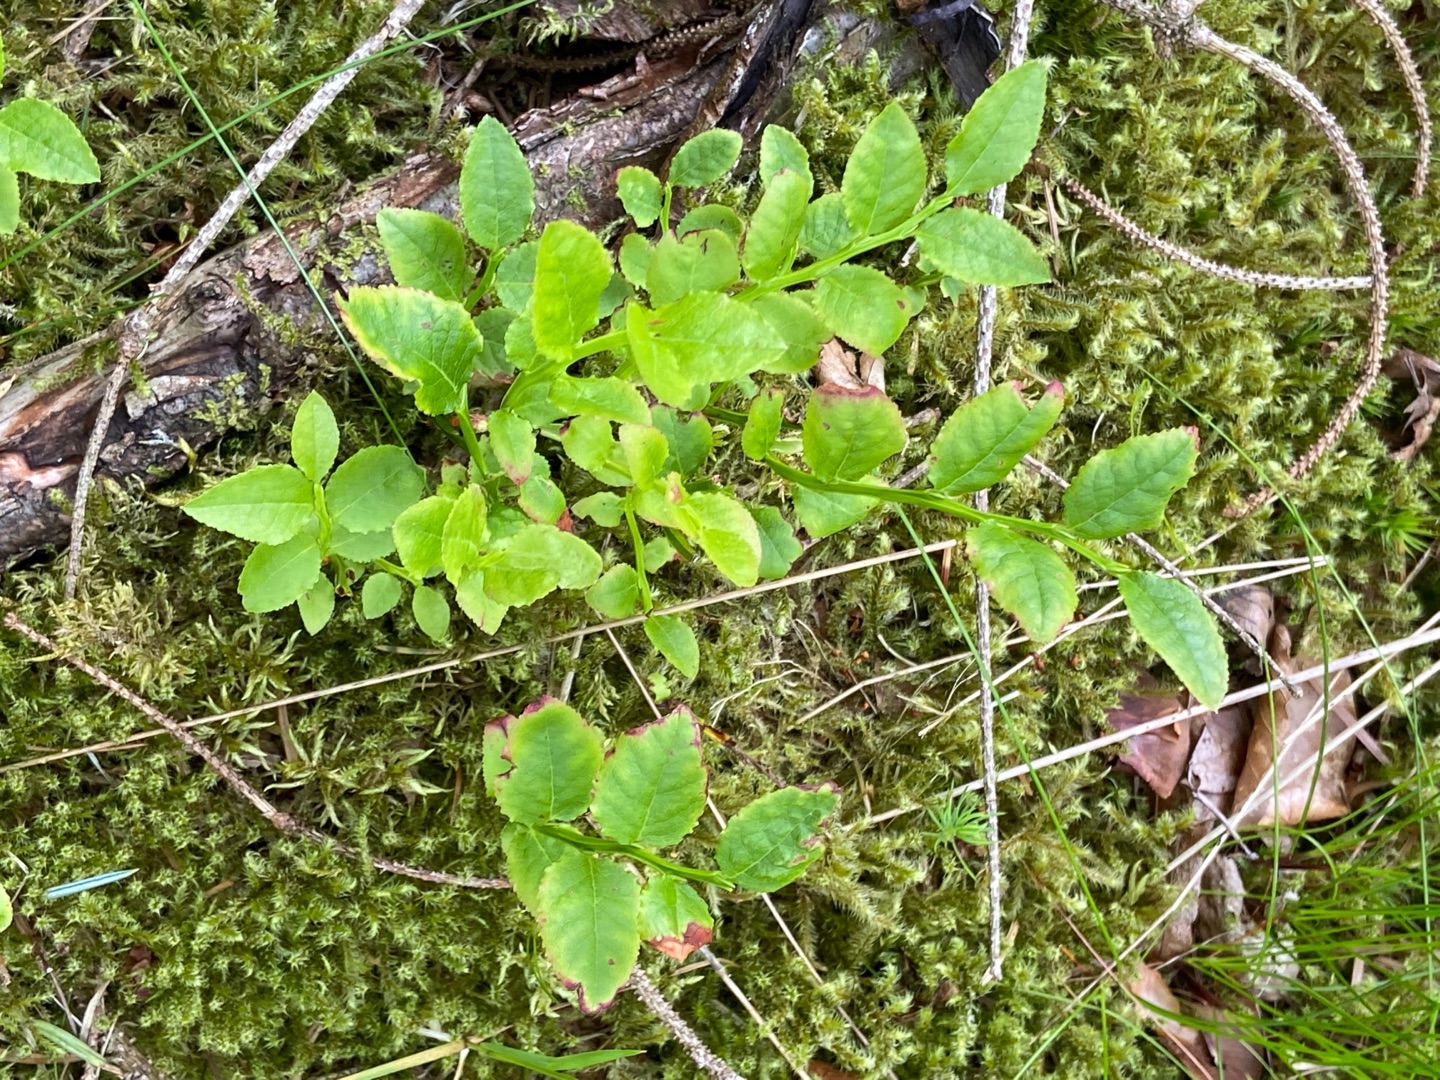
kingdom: Plantae
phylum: Tracheophyta
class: Magnoliopsida
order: Ericales
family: Ericaceae
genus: Vaccinium
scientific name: Vaccinium myrtillus
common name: Blåbær
